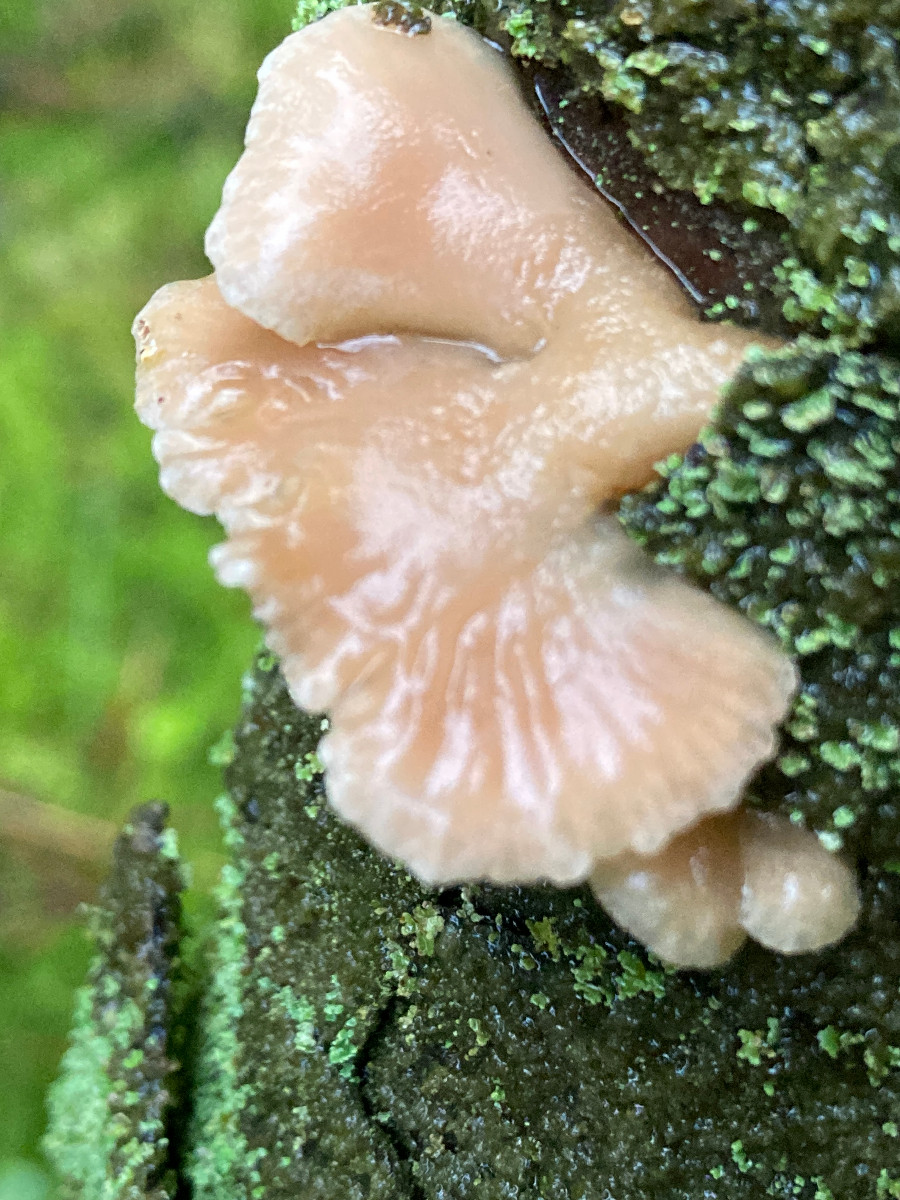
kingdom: Fungi
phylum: Basidiomycota
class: Agaricomycetes
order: Agaricales
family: Mycenaceae
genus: Panellus
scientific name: Panellus mitis
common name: mild epaulethat
